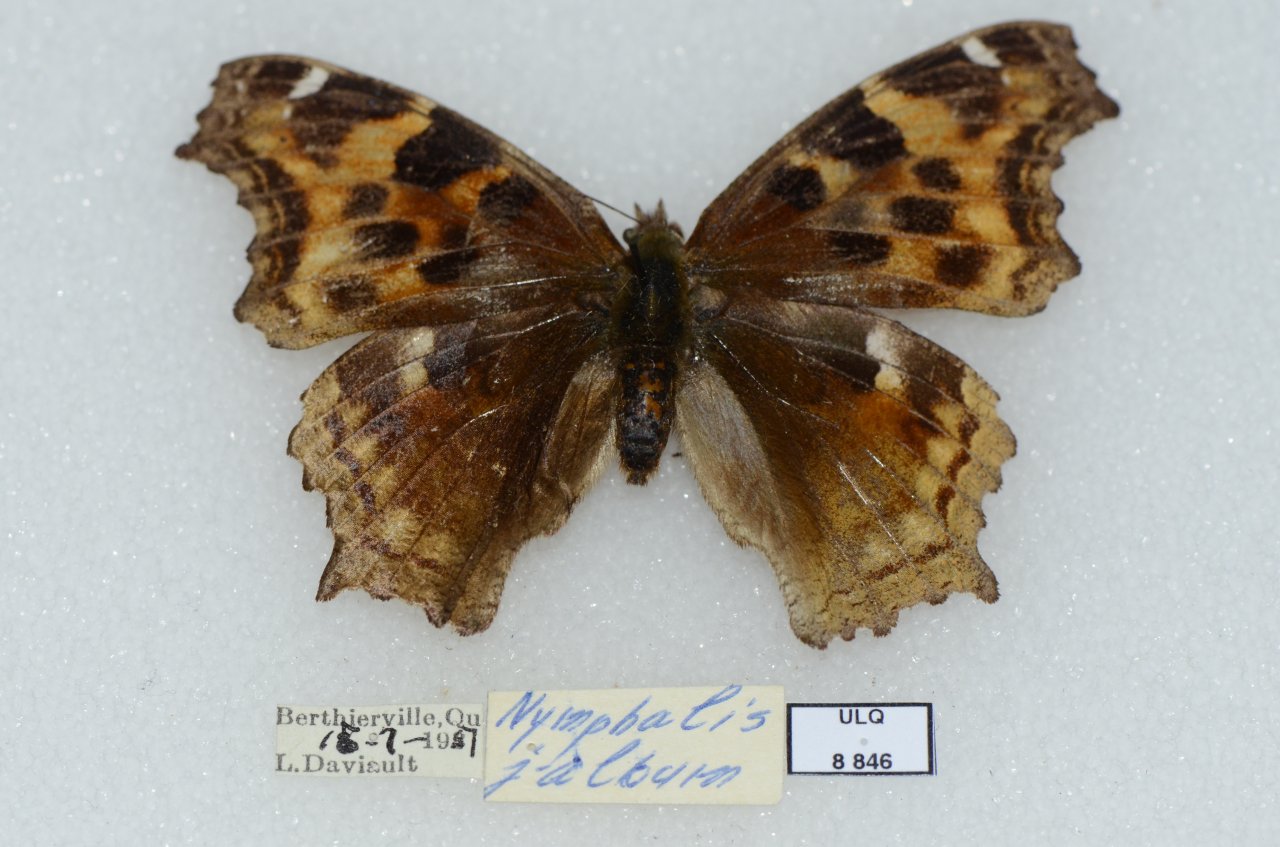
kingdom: Animalia
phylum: Arthropoda
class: Insecta
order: Lepidoptera
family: Nymphalidae
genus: Polygonia
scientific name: Polygonia vaualbum
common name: Compton Tortoiseshell
